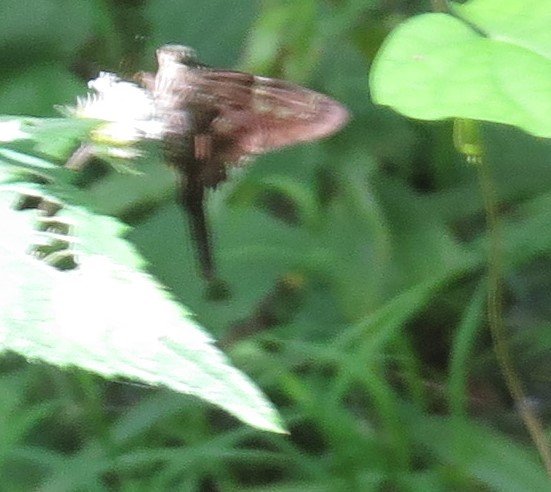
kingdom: Animalia
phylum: Arthropoda
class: Insecta
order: Lepidoptera
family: Hesperiidae
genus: Urbanus
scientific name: Urbanus proteus
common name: Long-tailed Skipper
